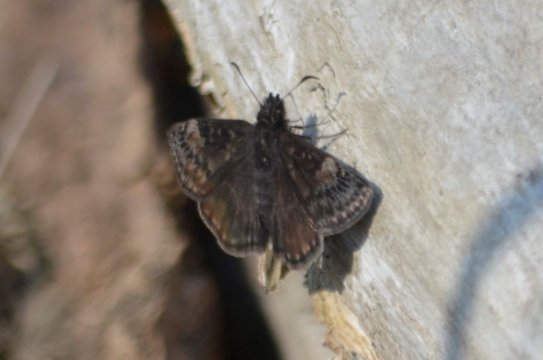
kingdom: Animalia
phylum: Arthropoda
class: Insecta
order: Lepidoptera
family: Hesperiidae
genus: Gesta
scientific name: Gesta
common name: Juvenal's Duskywing
